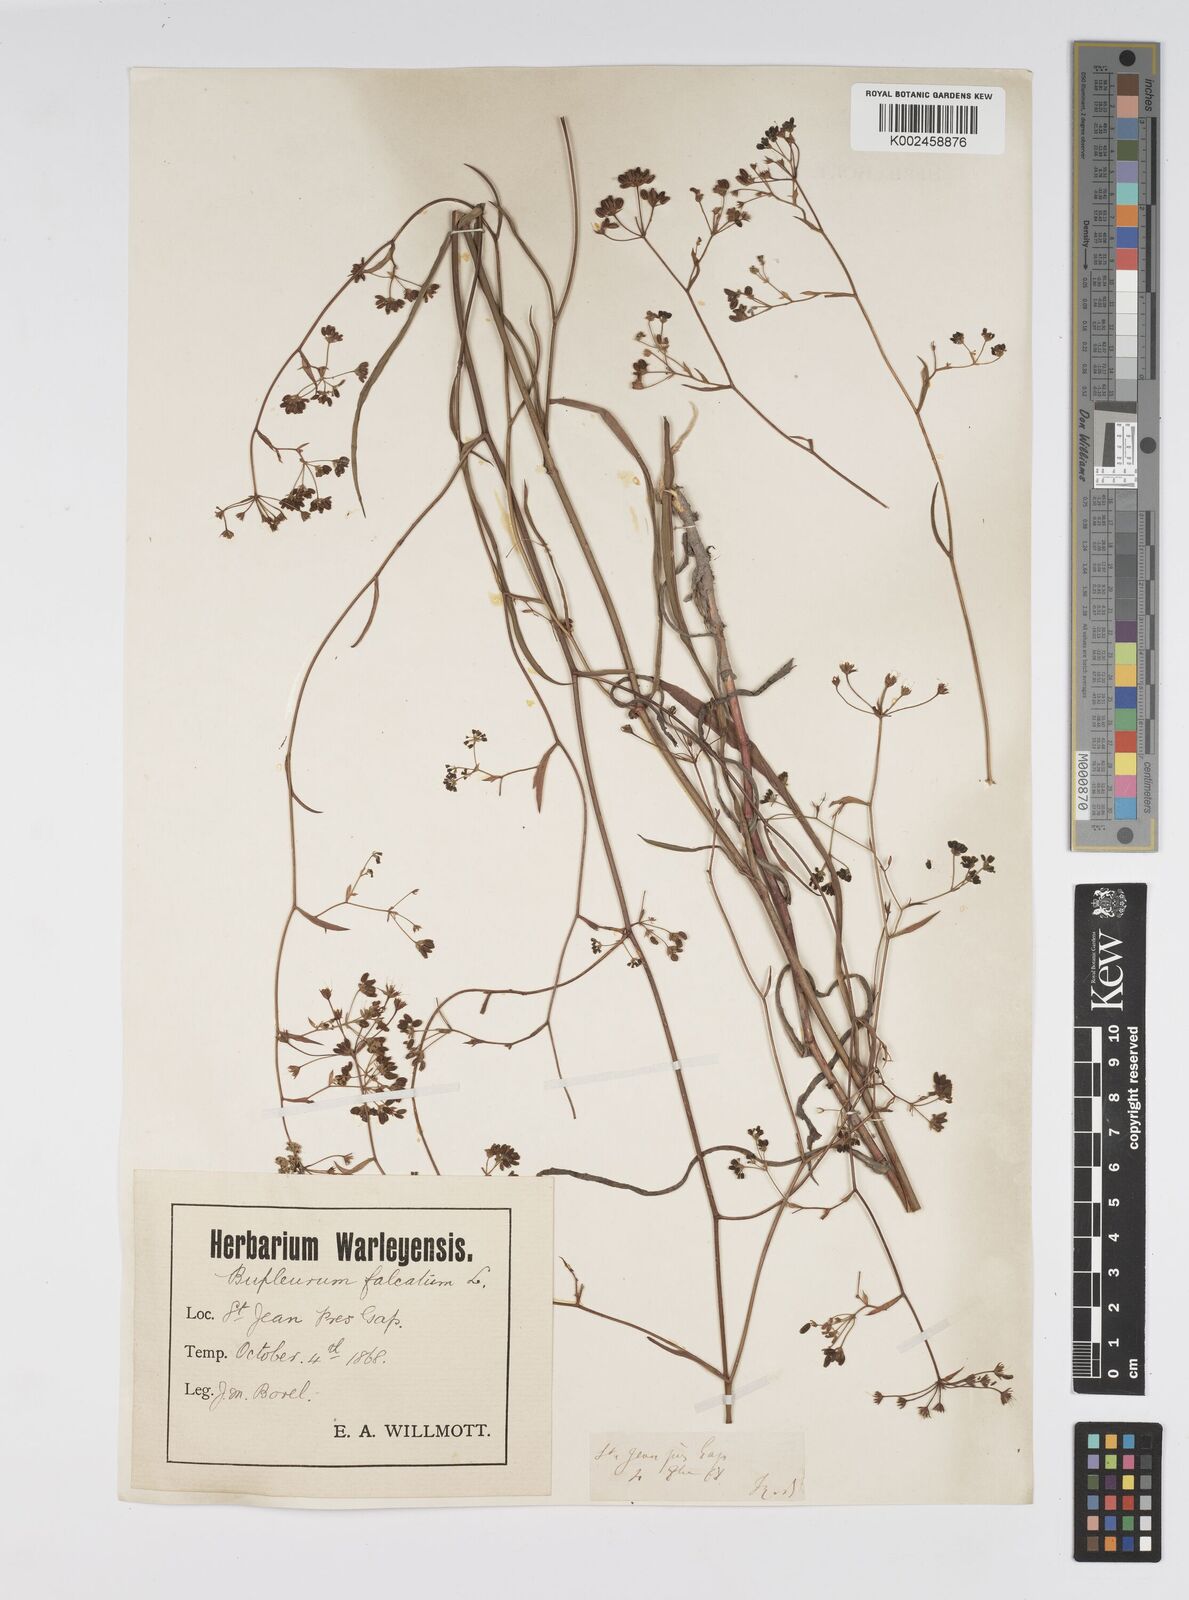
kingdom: Plantae
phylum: Tracheophyta
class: Magnoliopsida
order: Apiales
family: Apiaceae
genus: Bupleurum
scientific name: Bupleurum falcatum
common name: Sickle-leaved hare's-ear
